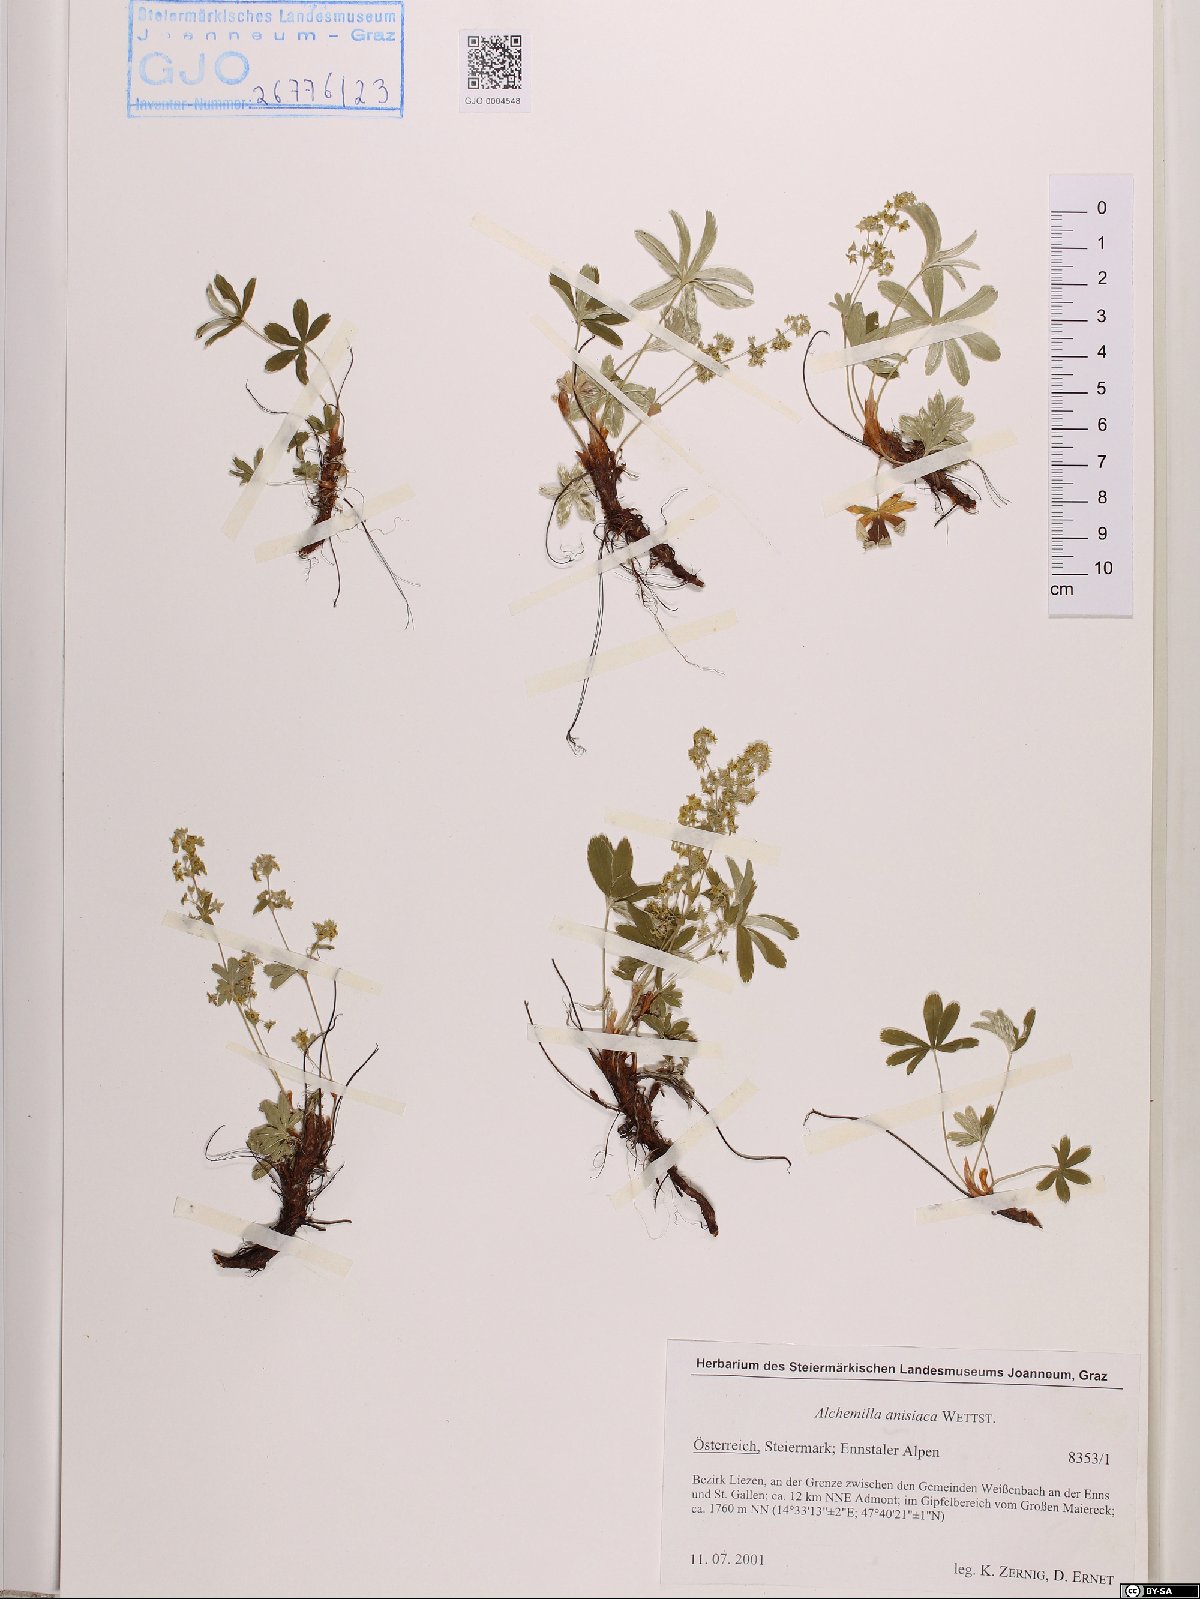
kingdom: Plantae
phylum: Tracheophyta
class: Magnoliopsida
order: Rosales
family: Rosaceae
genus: Alchemilla
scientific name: Alchemilla anisiaca
